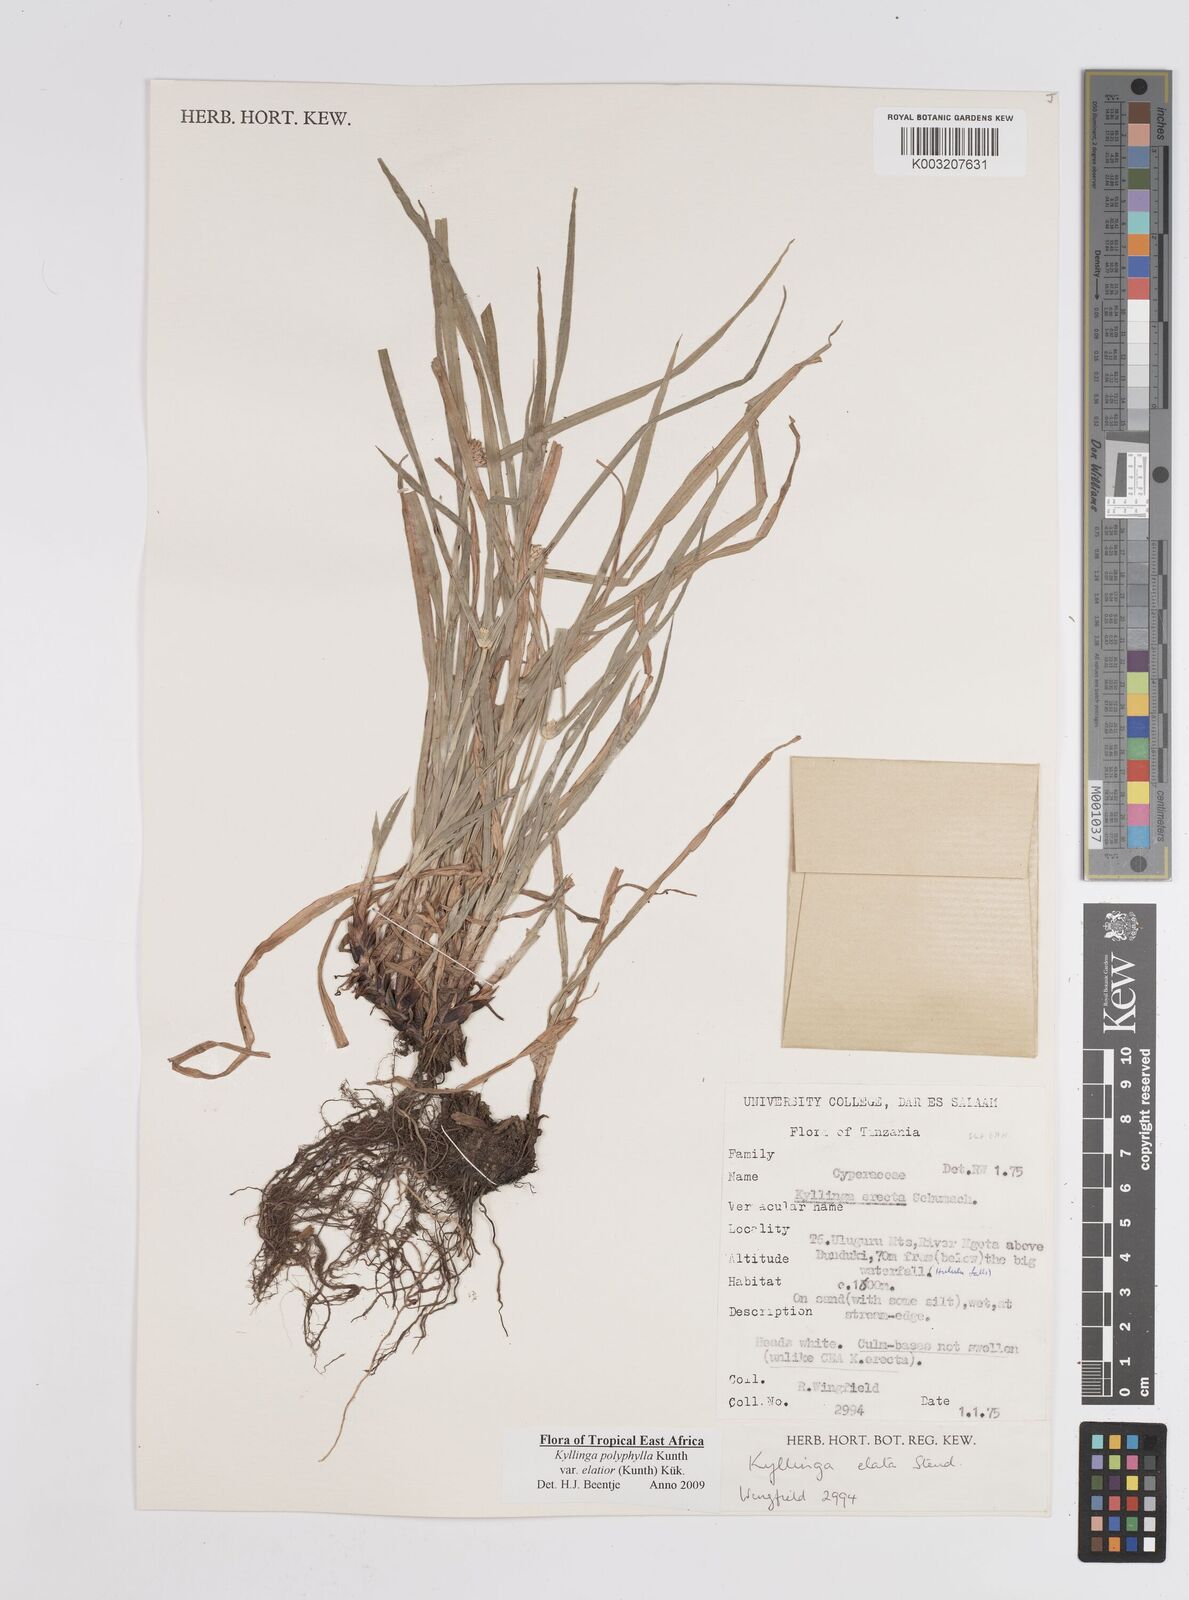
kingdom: Plantae
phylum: Tracheophyta
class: Liliopsida
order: Poales
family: Cyperaceae
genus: Cyperus
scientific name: Cyperus
